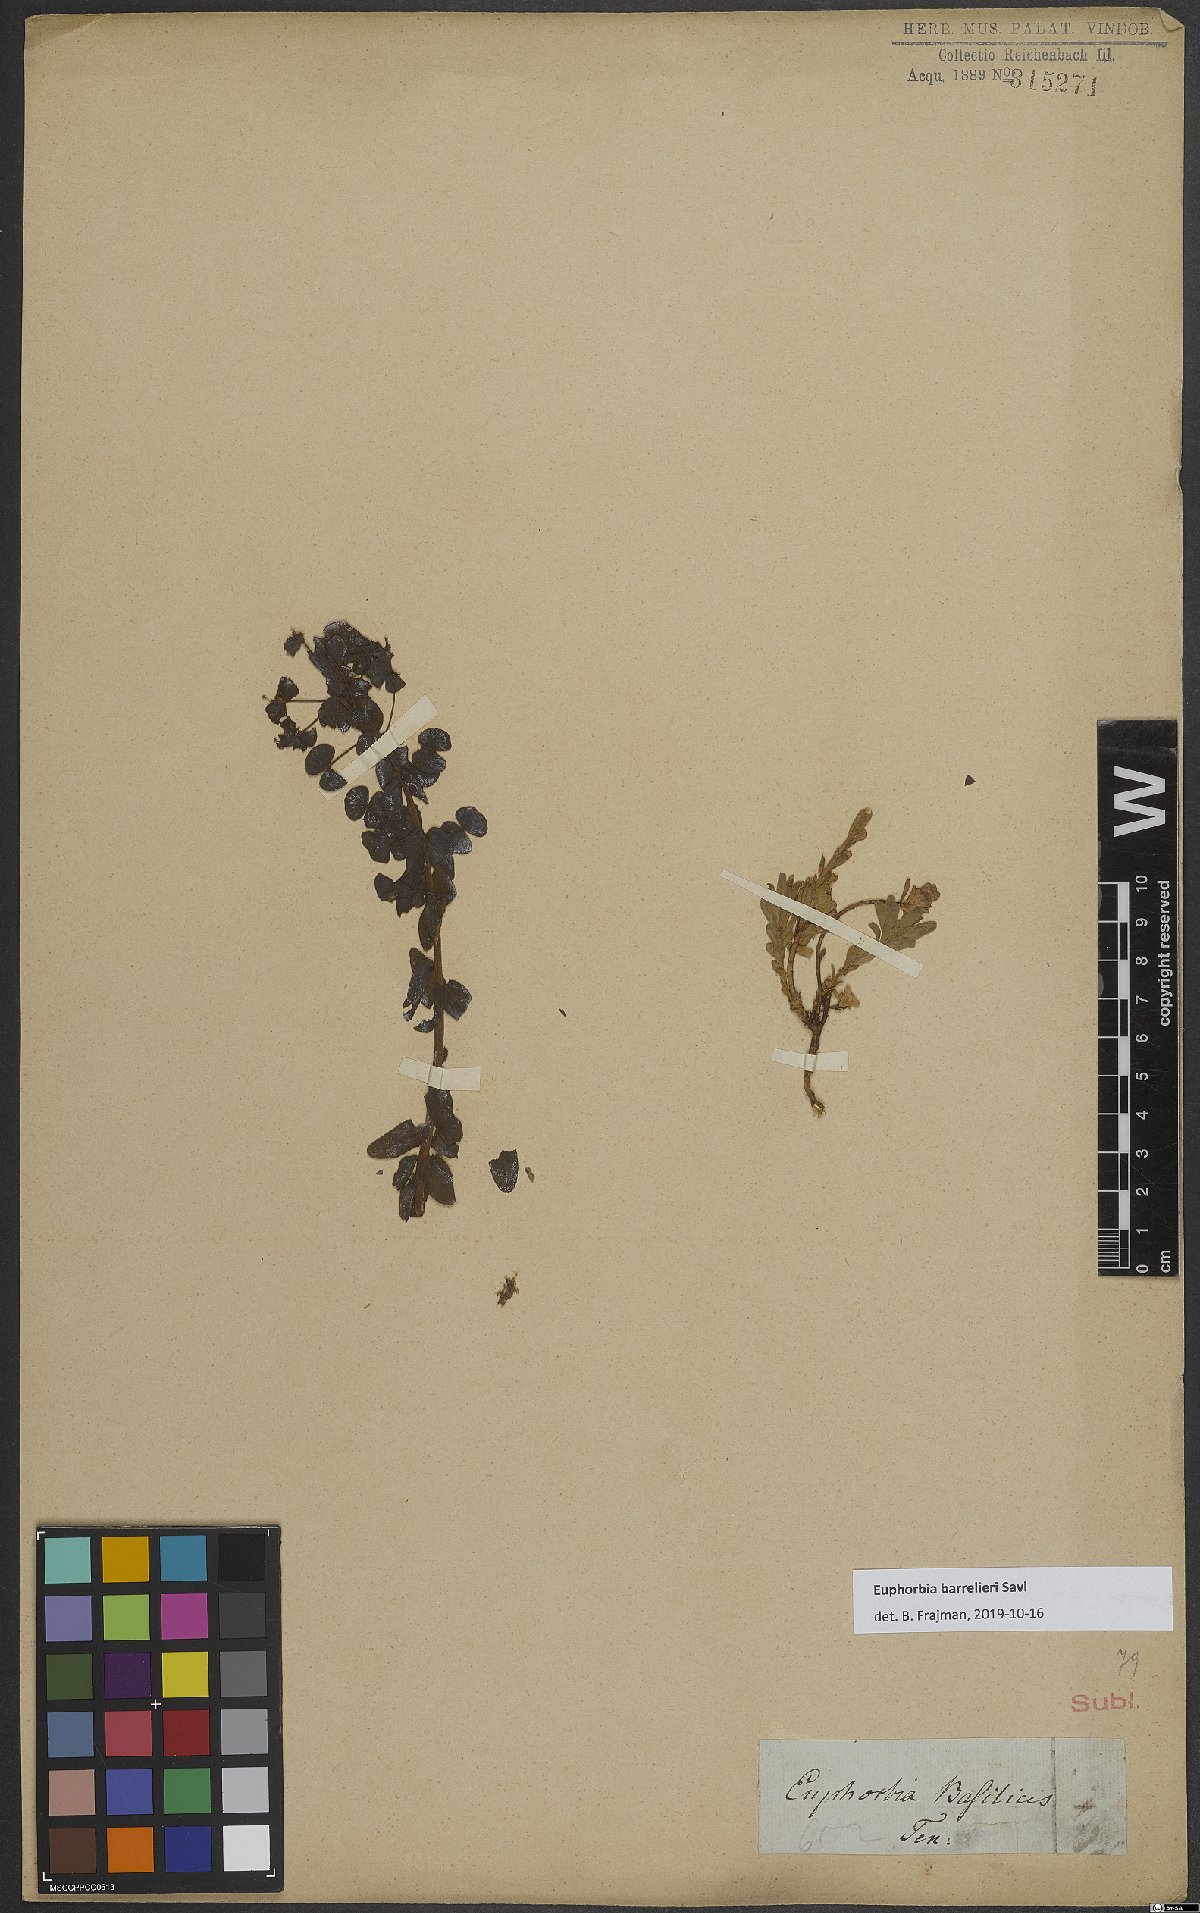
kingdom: Plantae
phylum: Tracheophyta
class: Magnoliopsida
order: Malpighiales
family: Euphorbiaceae
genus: Euphorbia
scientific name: Euphorbia barrelieri
